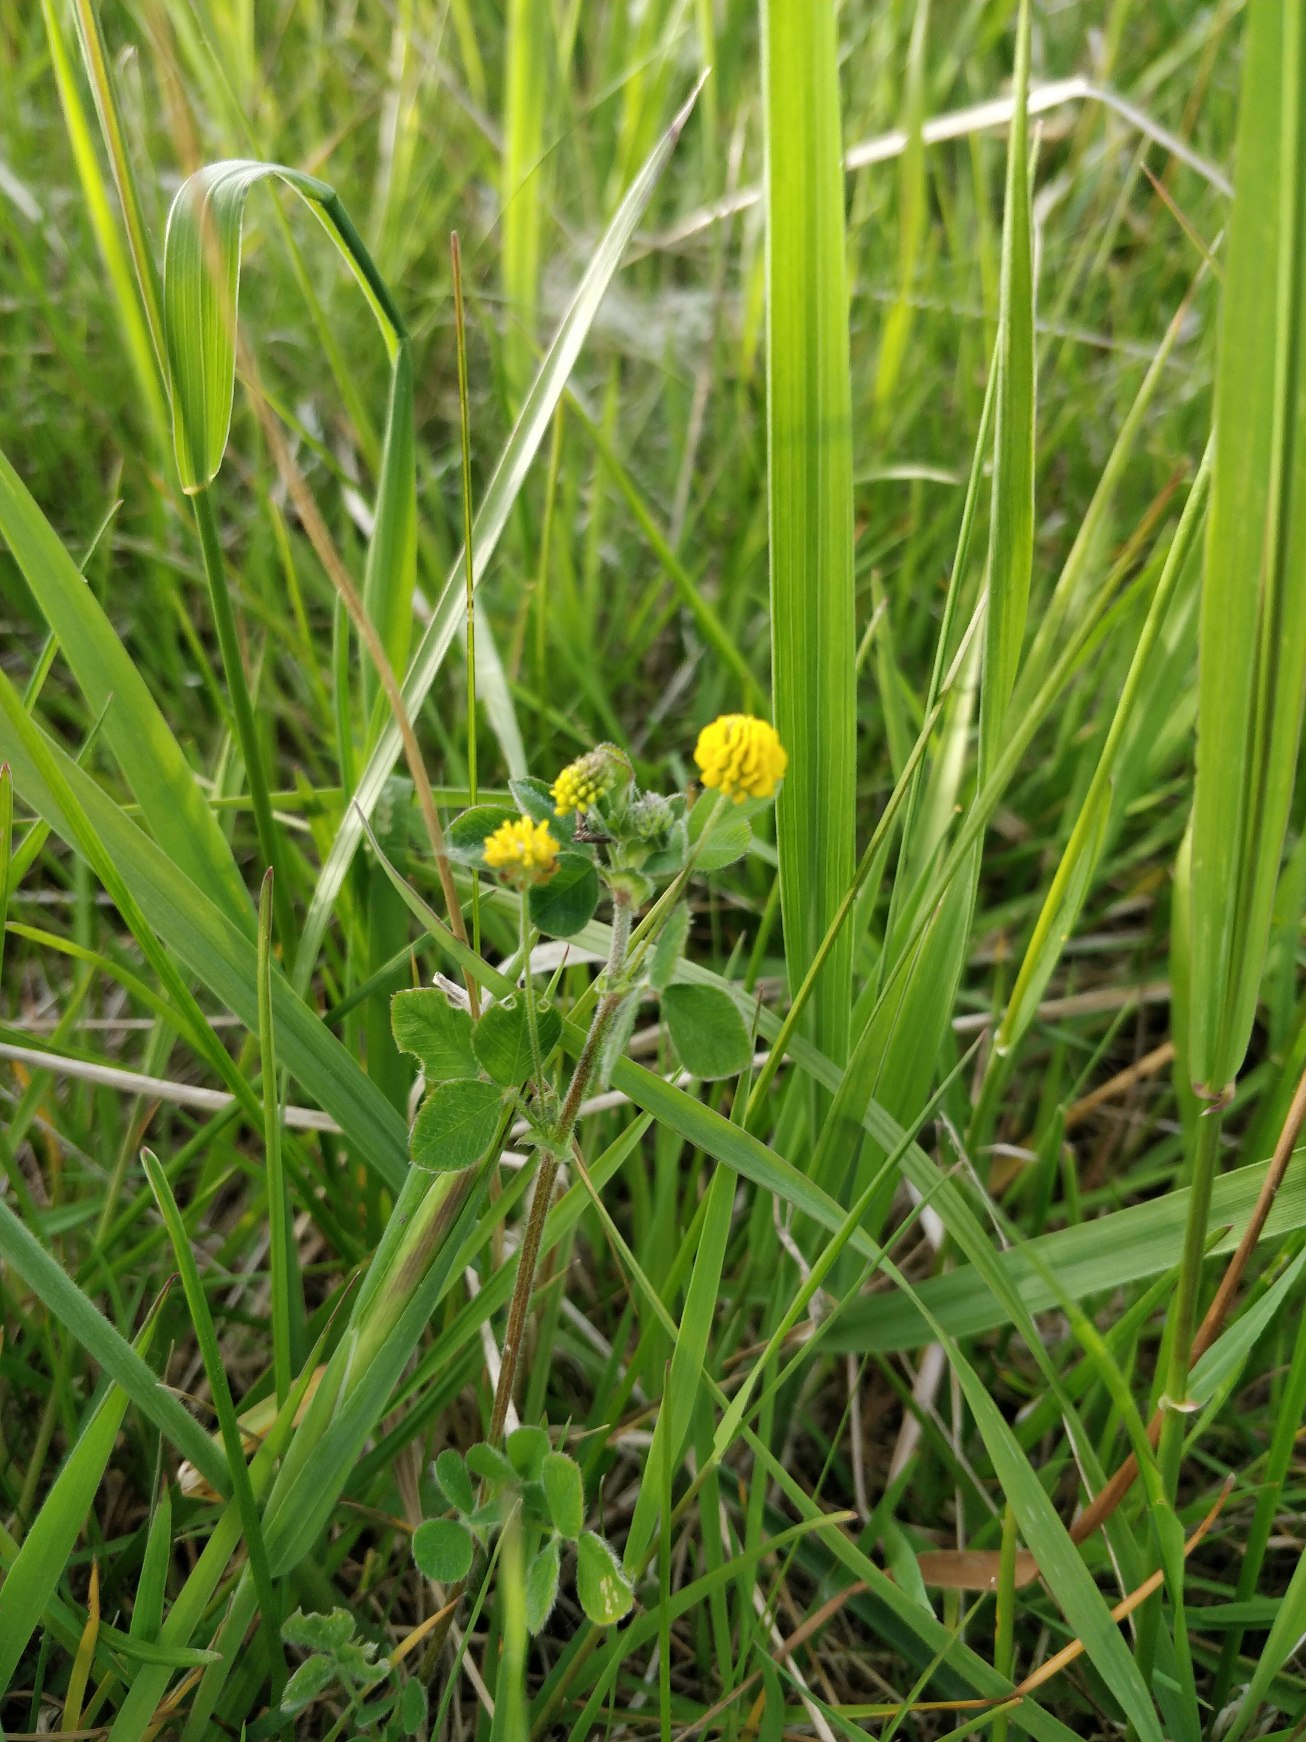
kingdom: Plantae
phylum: Tracheophyta
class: Magnoliopsida
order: Fabales
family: Fabaceae
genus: Medicago
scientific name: Medicago lupulina
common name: Humle-sneglebælg
